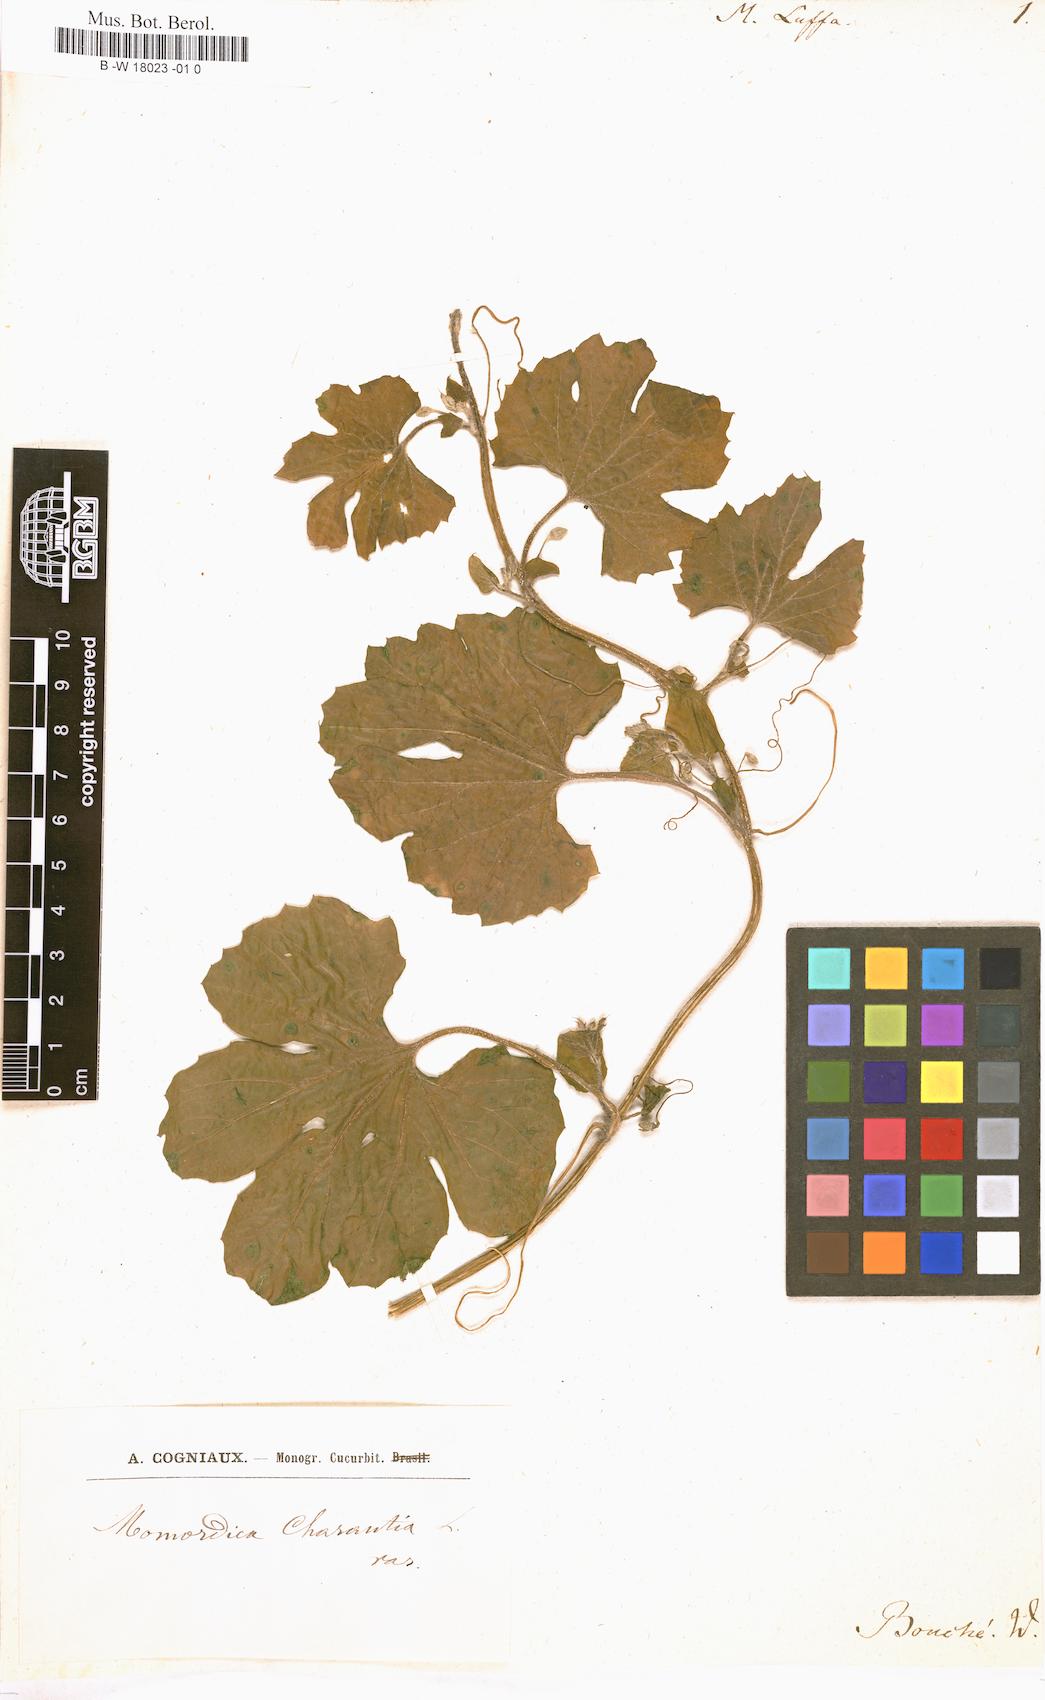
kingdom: Plantae
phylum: Tracheophyta
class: Magnoliopsida
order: Cucurbitales
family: Cucurbitaceae
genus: Luffa
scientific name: Luffa
